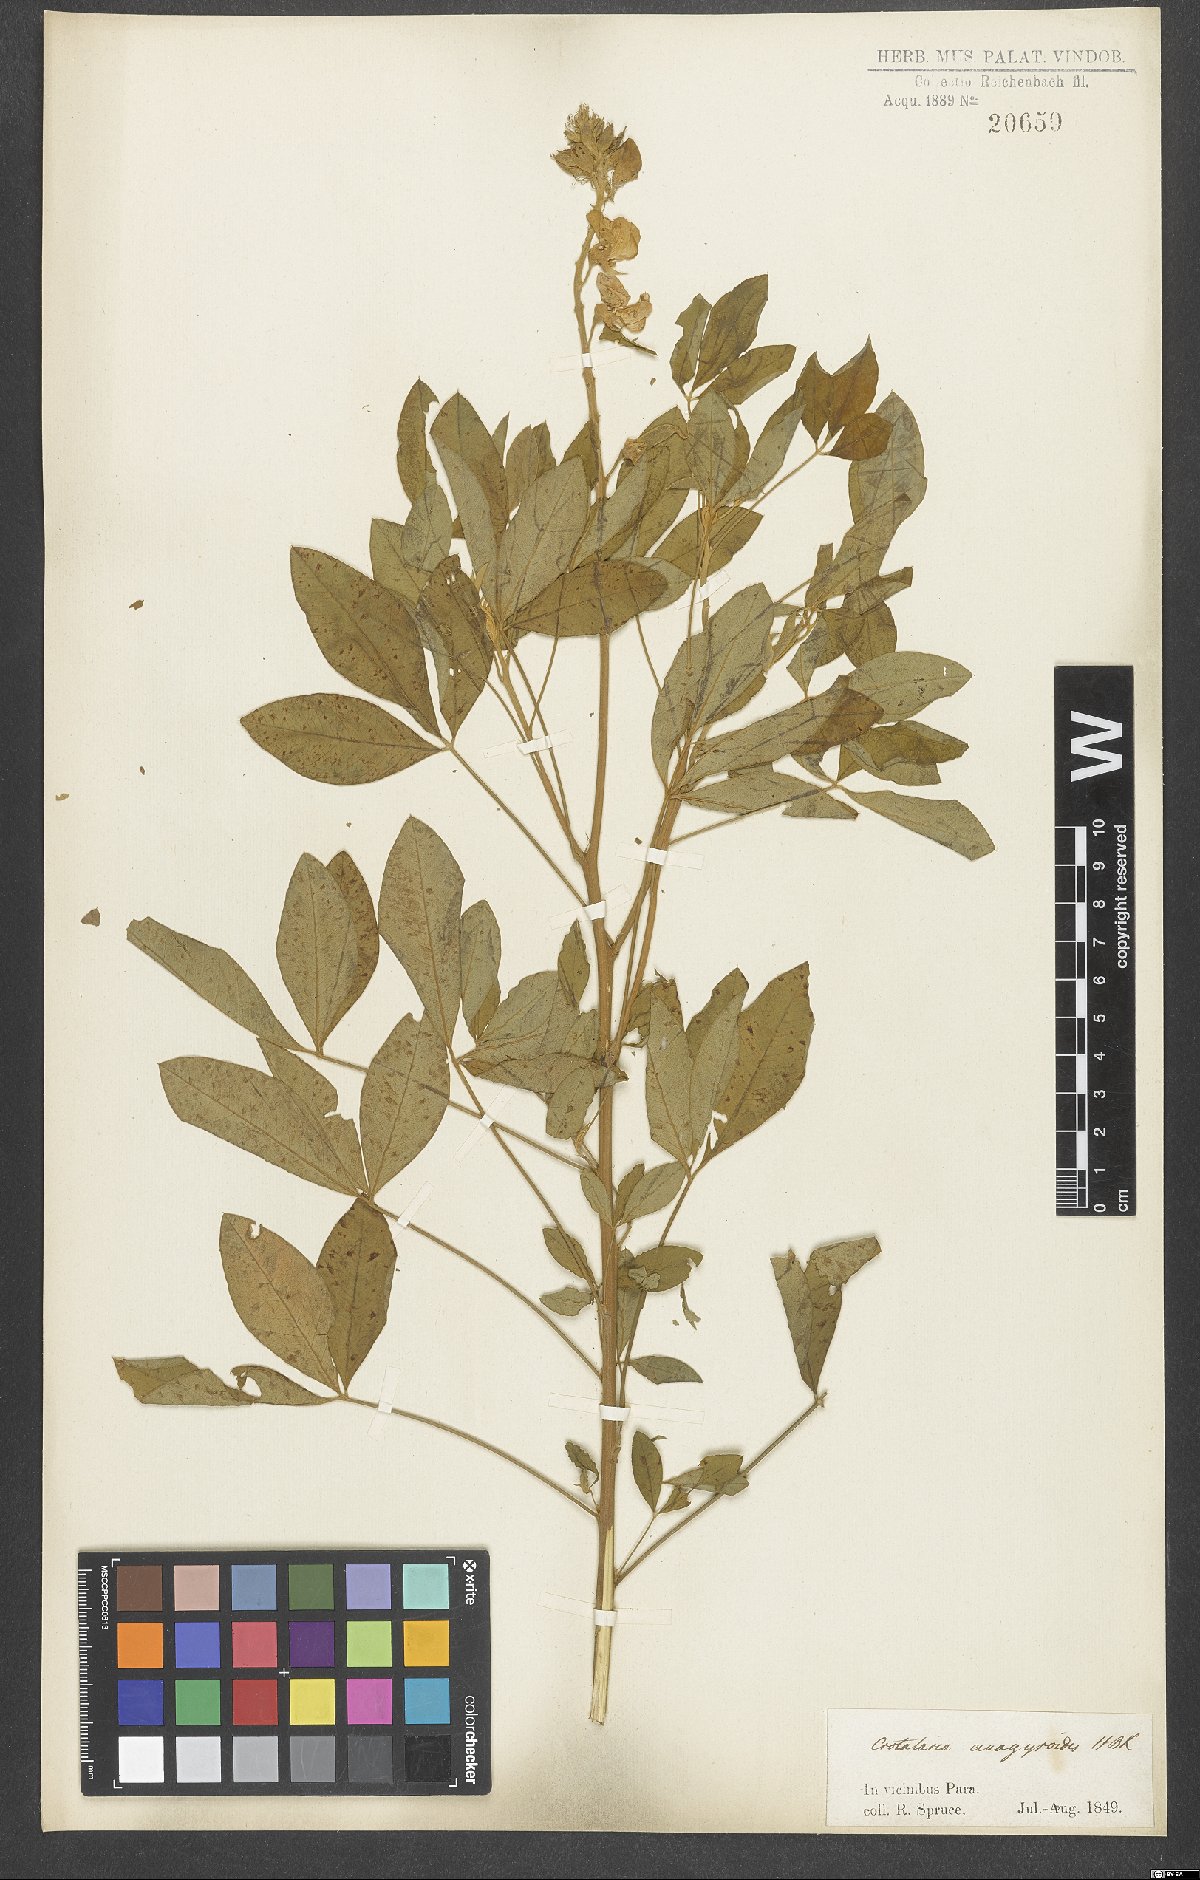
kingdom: Plantae
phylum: Tracheophyta
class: Magnoliopsida
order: Fabales
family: Fabaceae
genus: Crotalaria
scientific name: Crotalaria micans
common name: Caracas rattlebox
